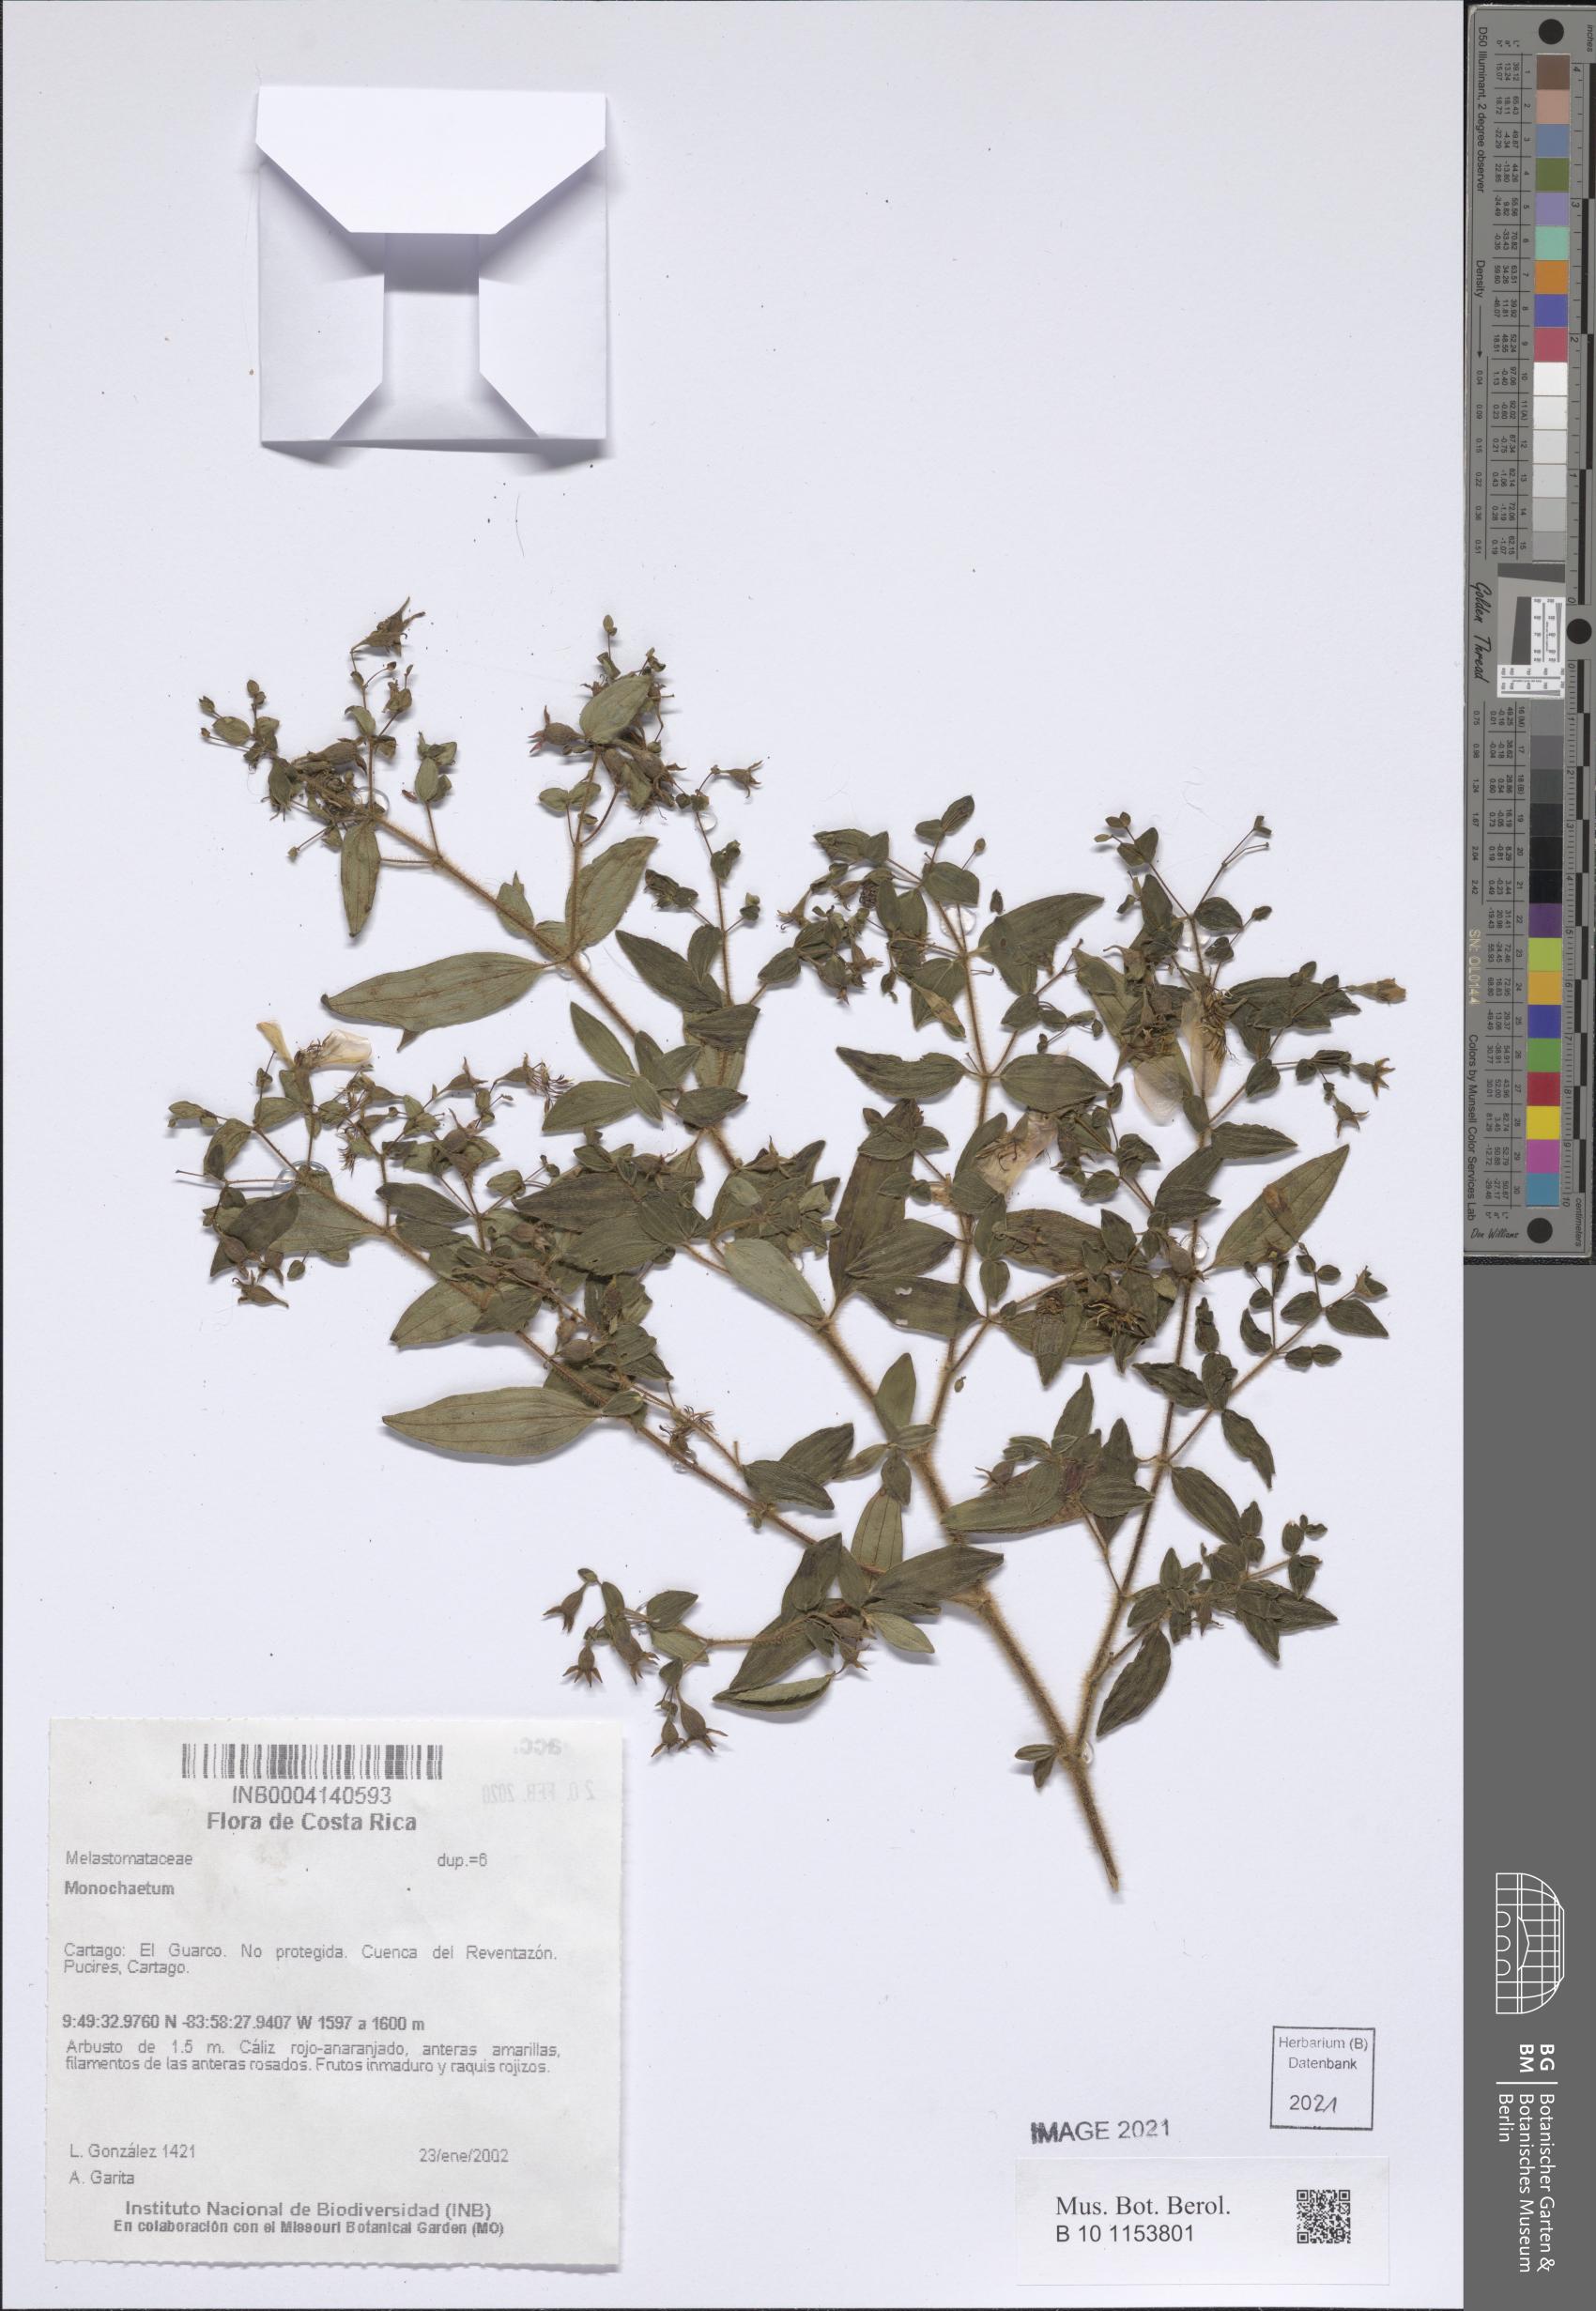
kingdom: Plantae
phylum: Tracheophyta
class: Magnoliopsida
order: Myrtales
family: Melastomataceae
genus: Monochaetum
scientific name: Monochaetum
